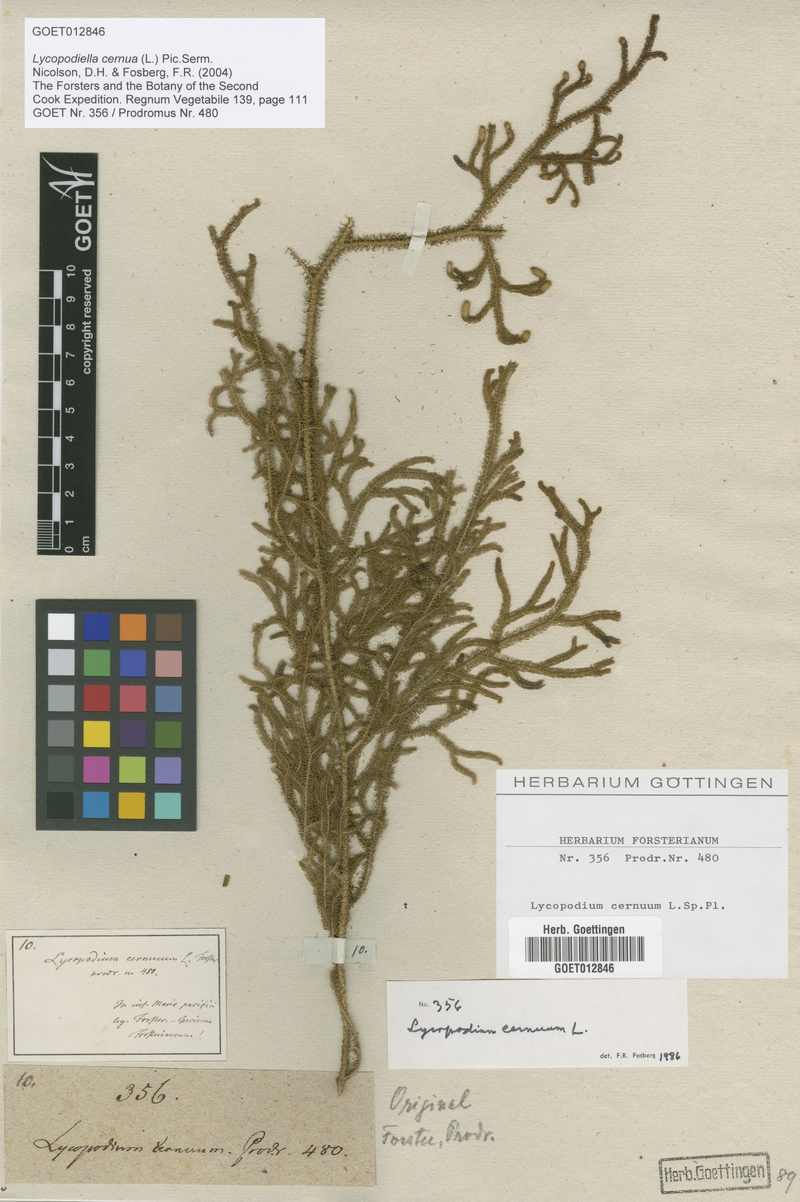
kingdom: Plantae
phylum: Tracheophyta
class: Lycopodiopsida
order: Lycopodiales
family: Lycopodiaceae
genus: Palhinhaea
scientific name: Palhinhaea cernua
